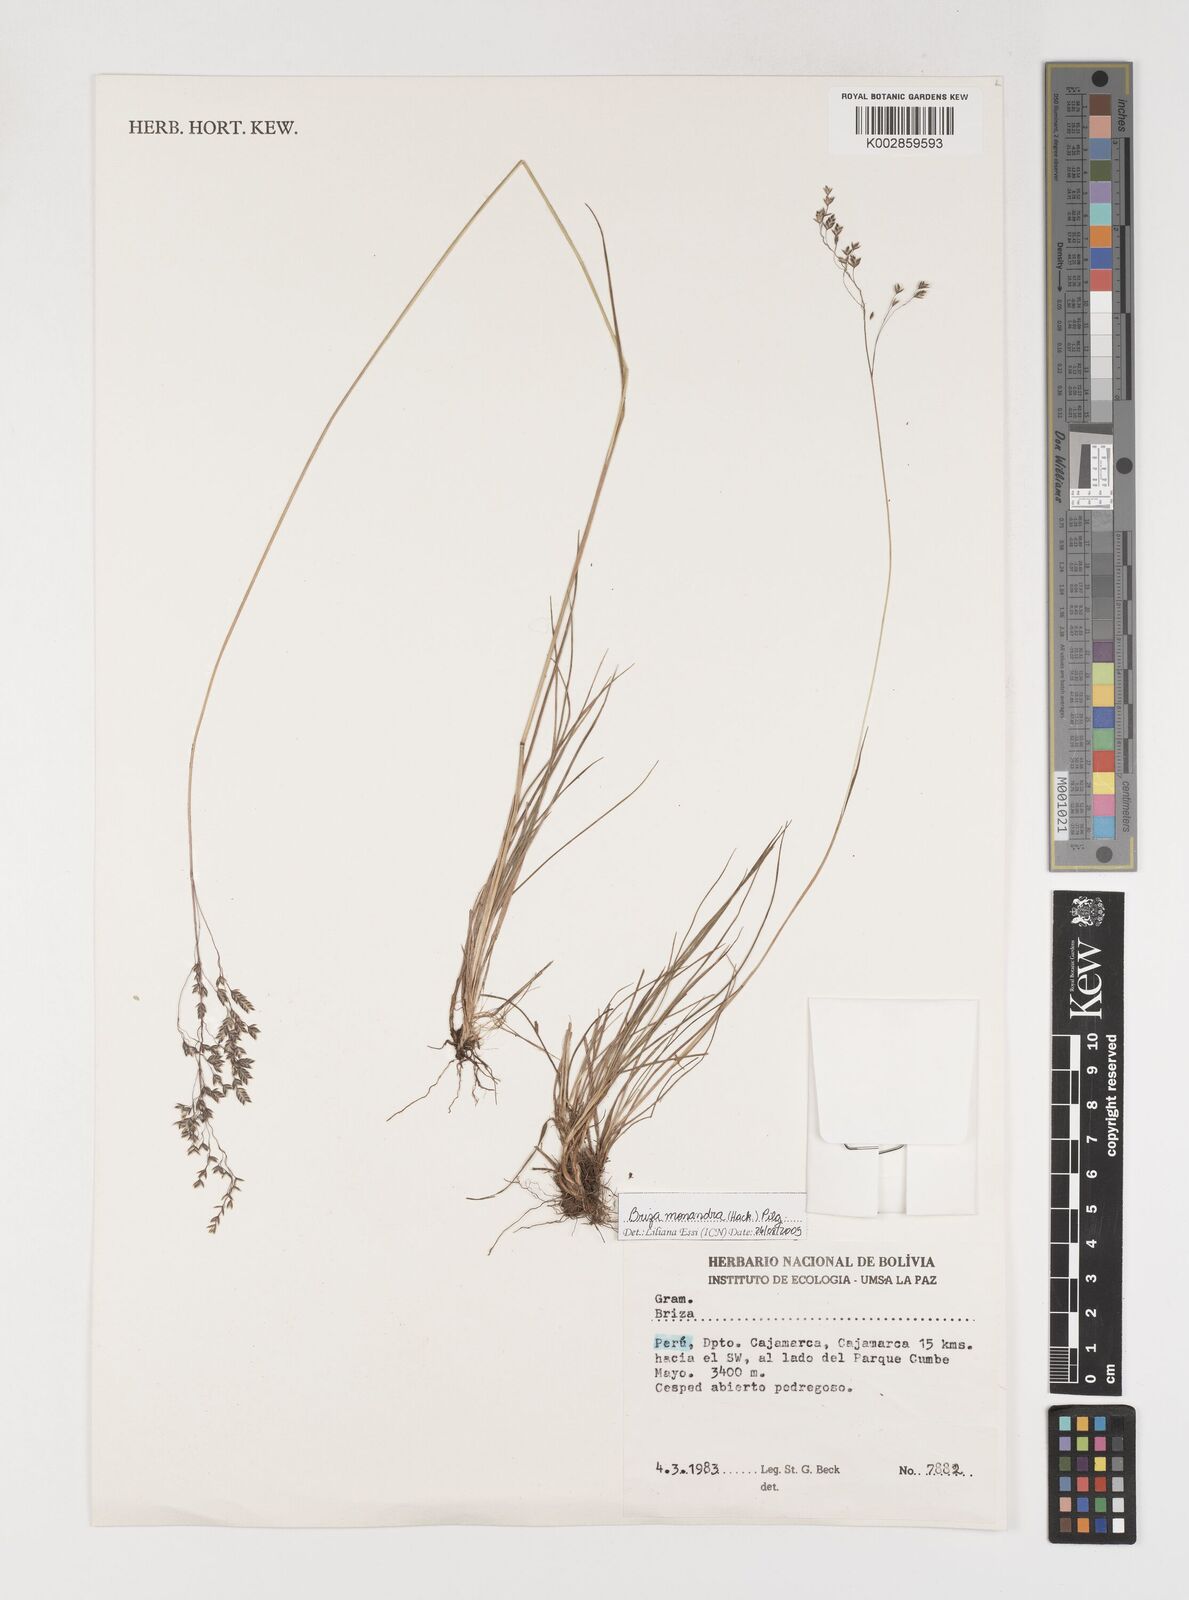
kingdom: Plantae
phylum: Tracheophyta
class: Liliopsida
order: Poales
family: Poaceae
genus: Poidium
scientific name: Poidium monandrum
